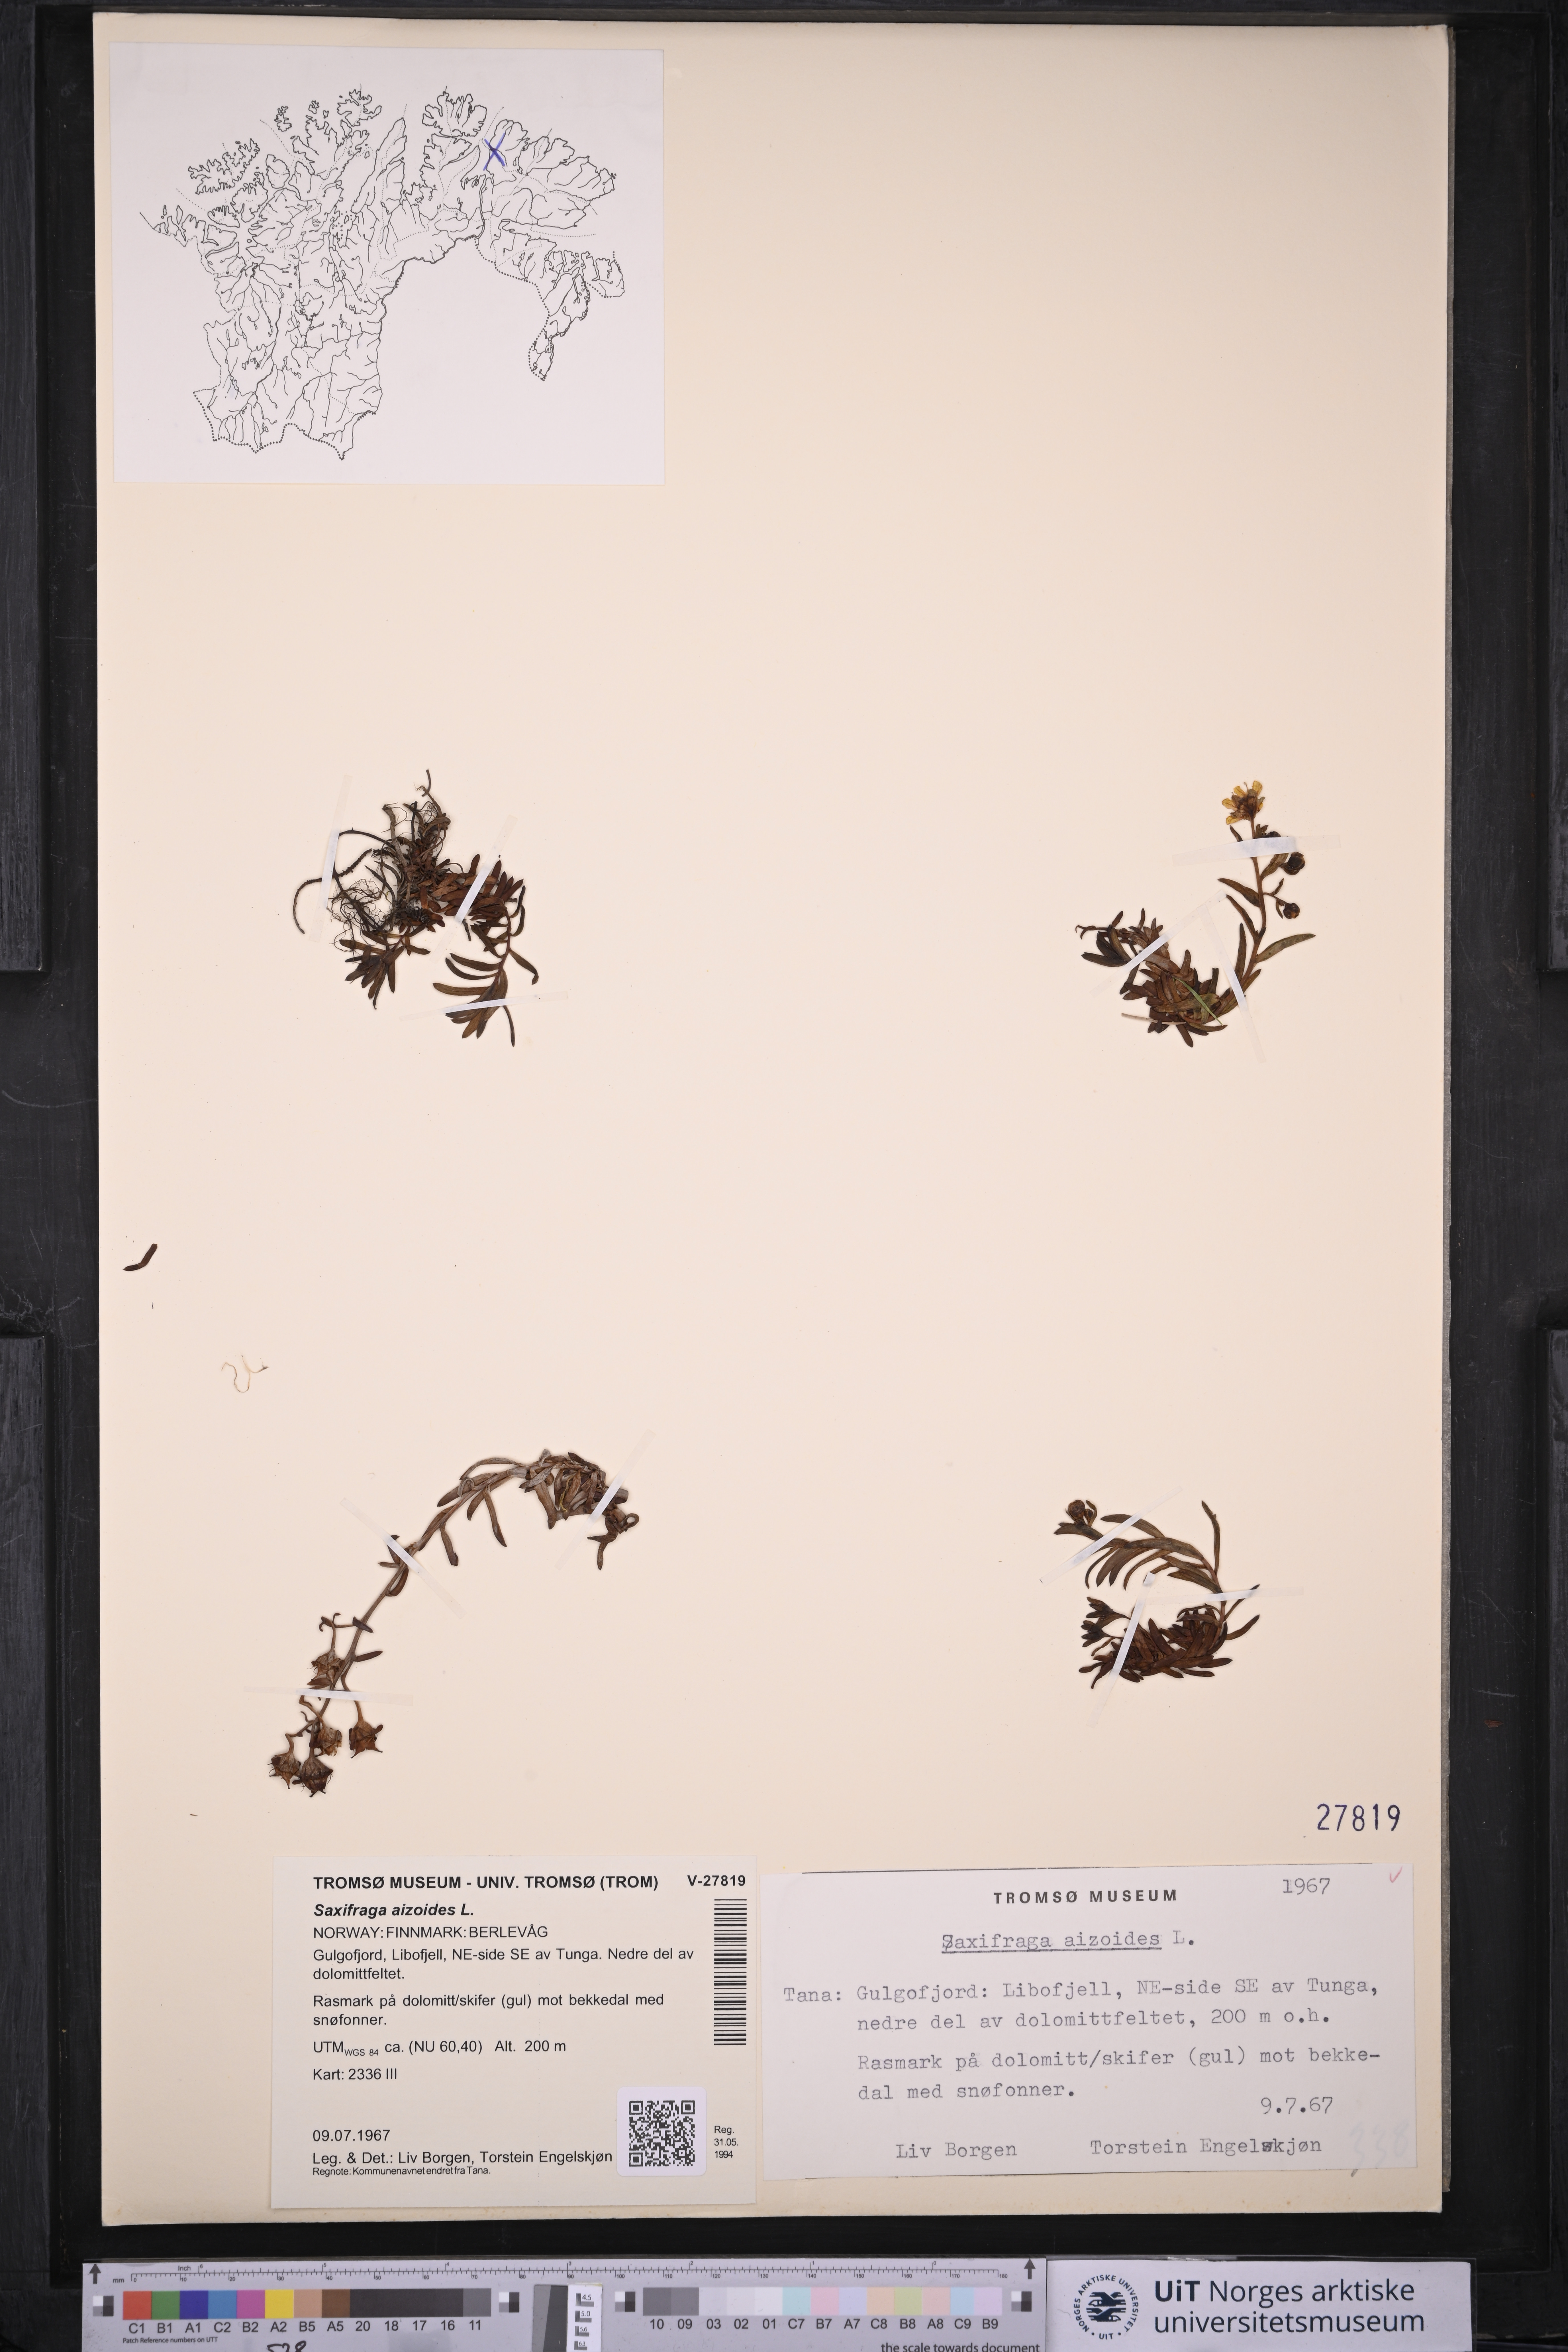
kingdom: Plantae
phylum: Tracheophyta
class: Magnoliopsida
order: Saxifragales
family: Saxifragaceae
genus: Saxifraga
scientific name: Saxifraga aizoides
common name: Yellow mountain saxifrage
